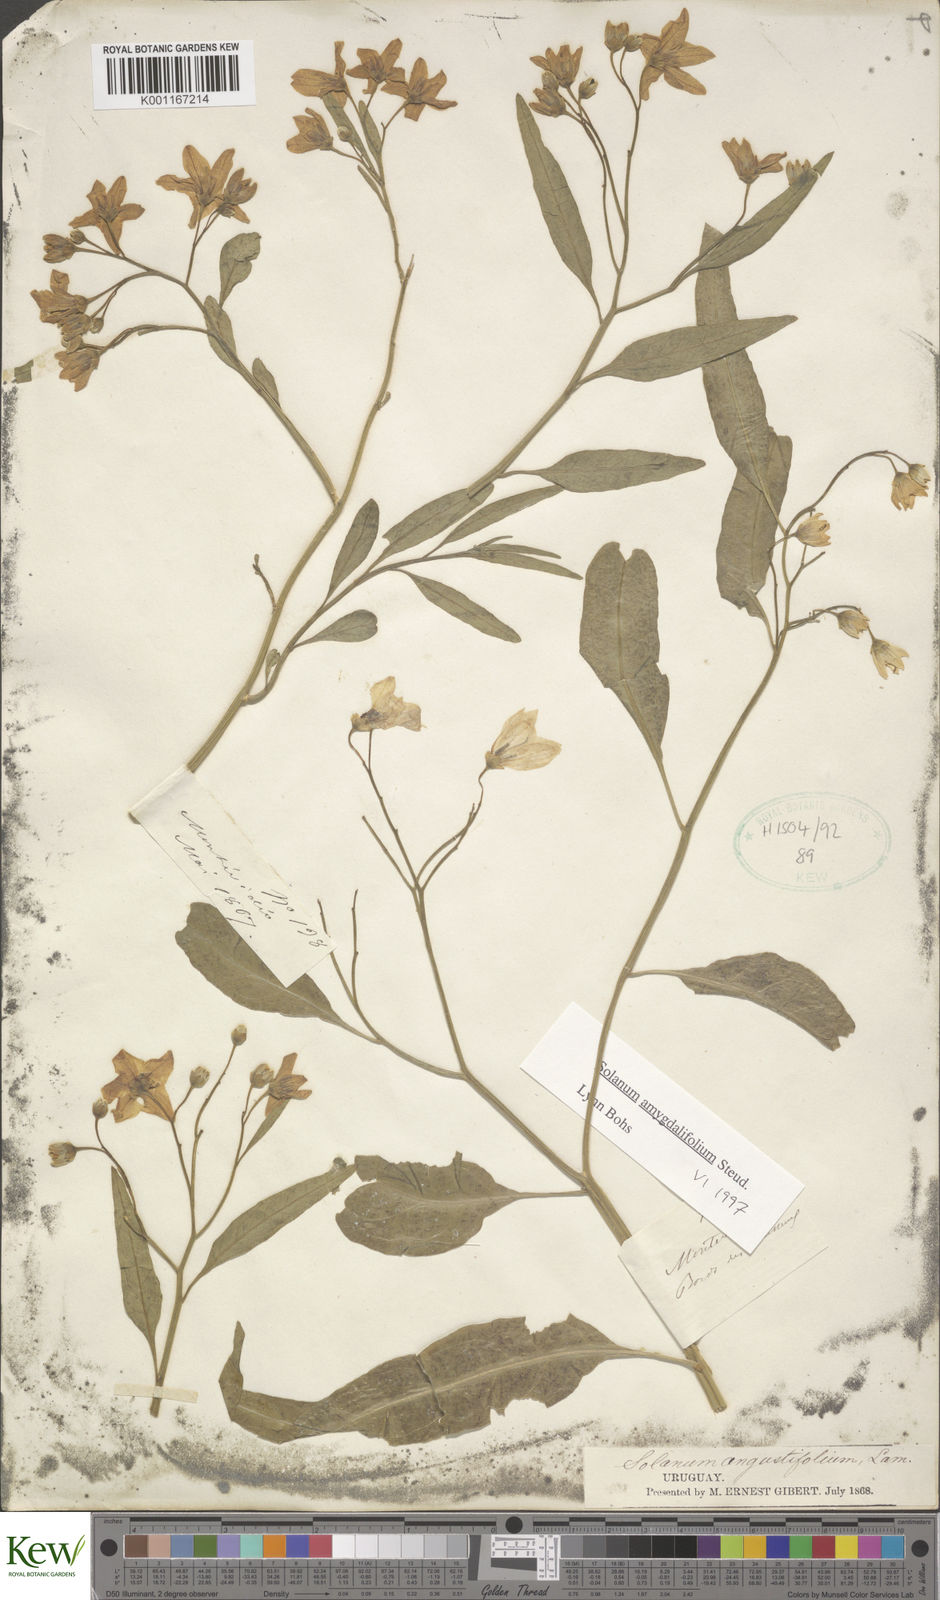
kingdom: Plantae
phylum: Tracheophyta
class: Magnoliopsida
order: Solanales
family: Solanaceae
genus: Solanum
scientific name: Solanum amygdalifolium
